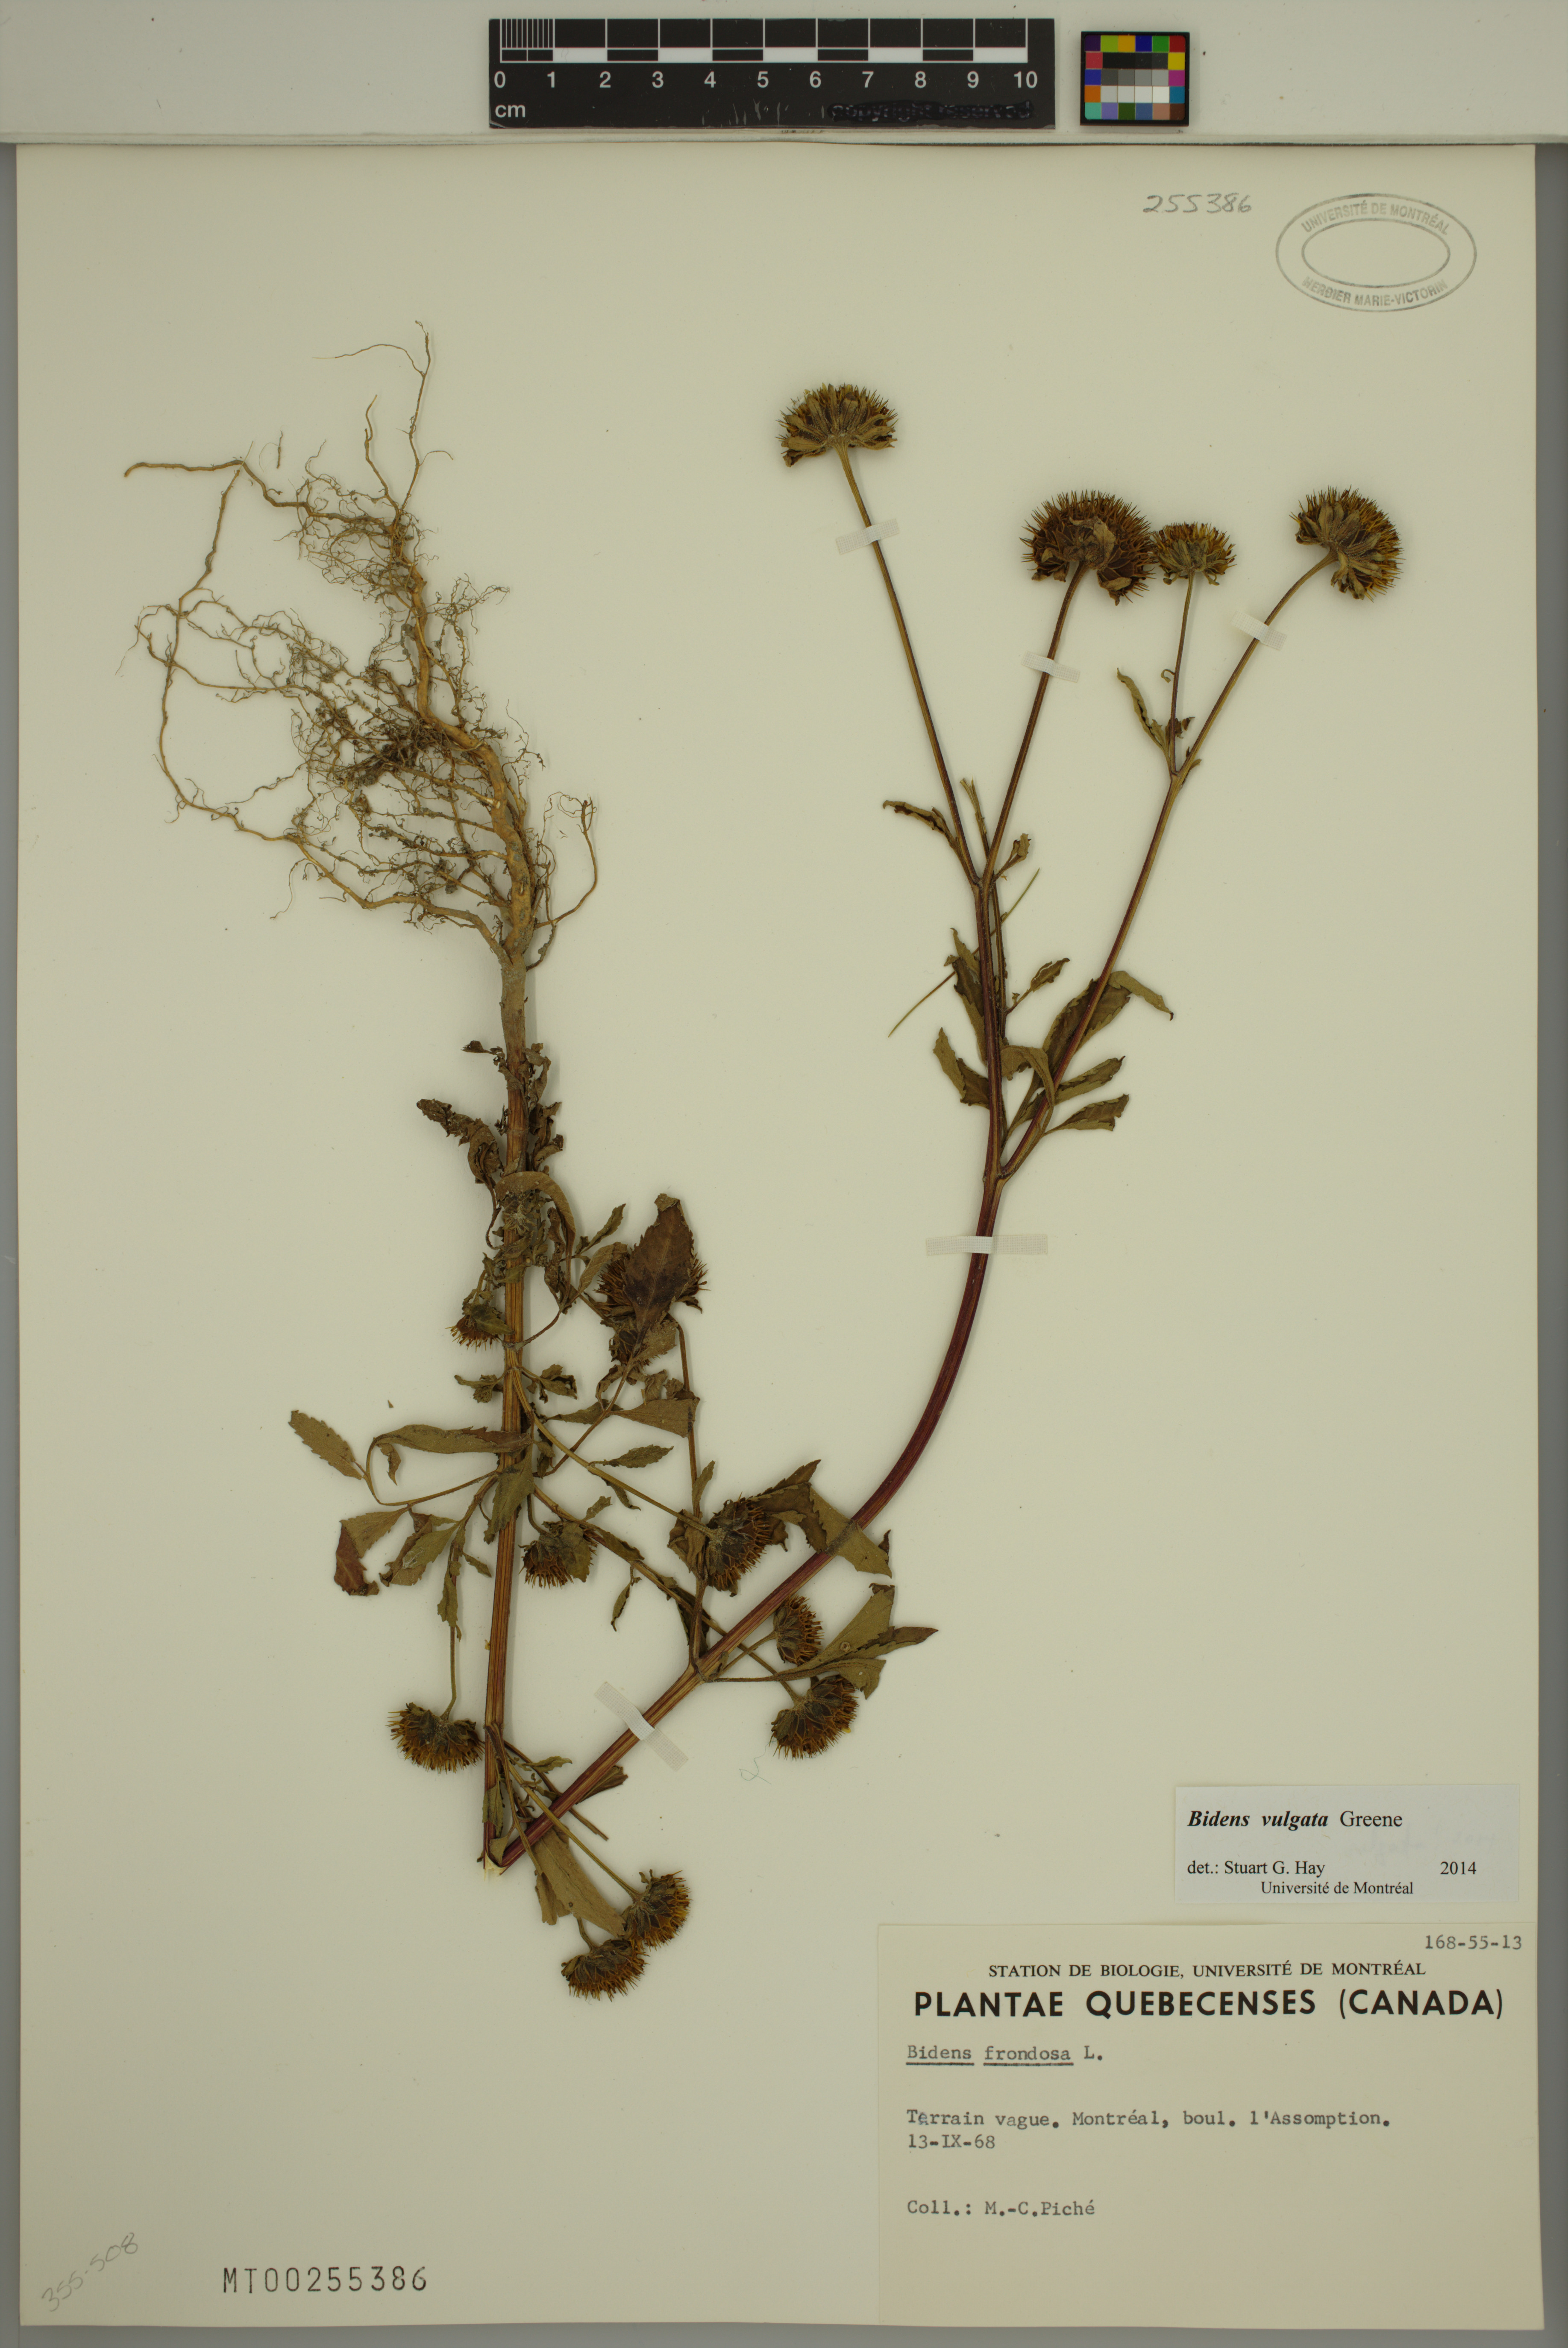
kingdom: Plantae
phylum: Tracheophyta
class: Magnoliopsida
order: Asterales
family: Asteraceae
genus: Bidens
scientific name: Bidens vulgata
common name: Tall beggarticks
